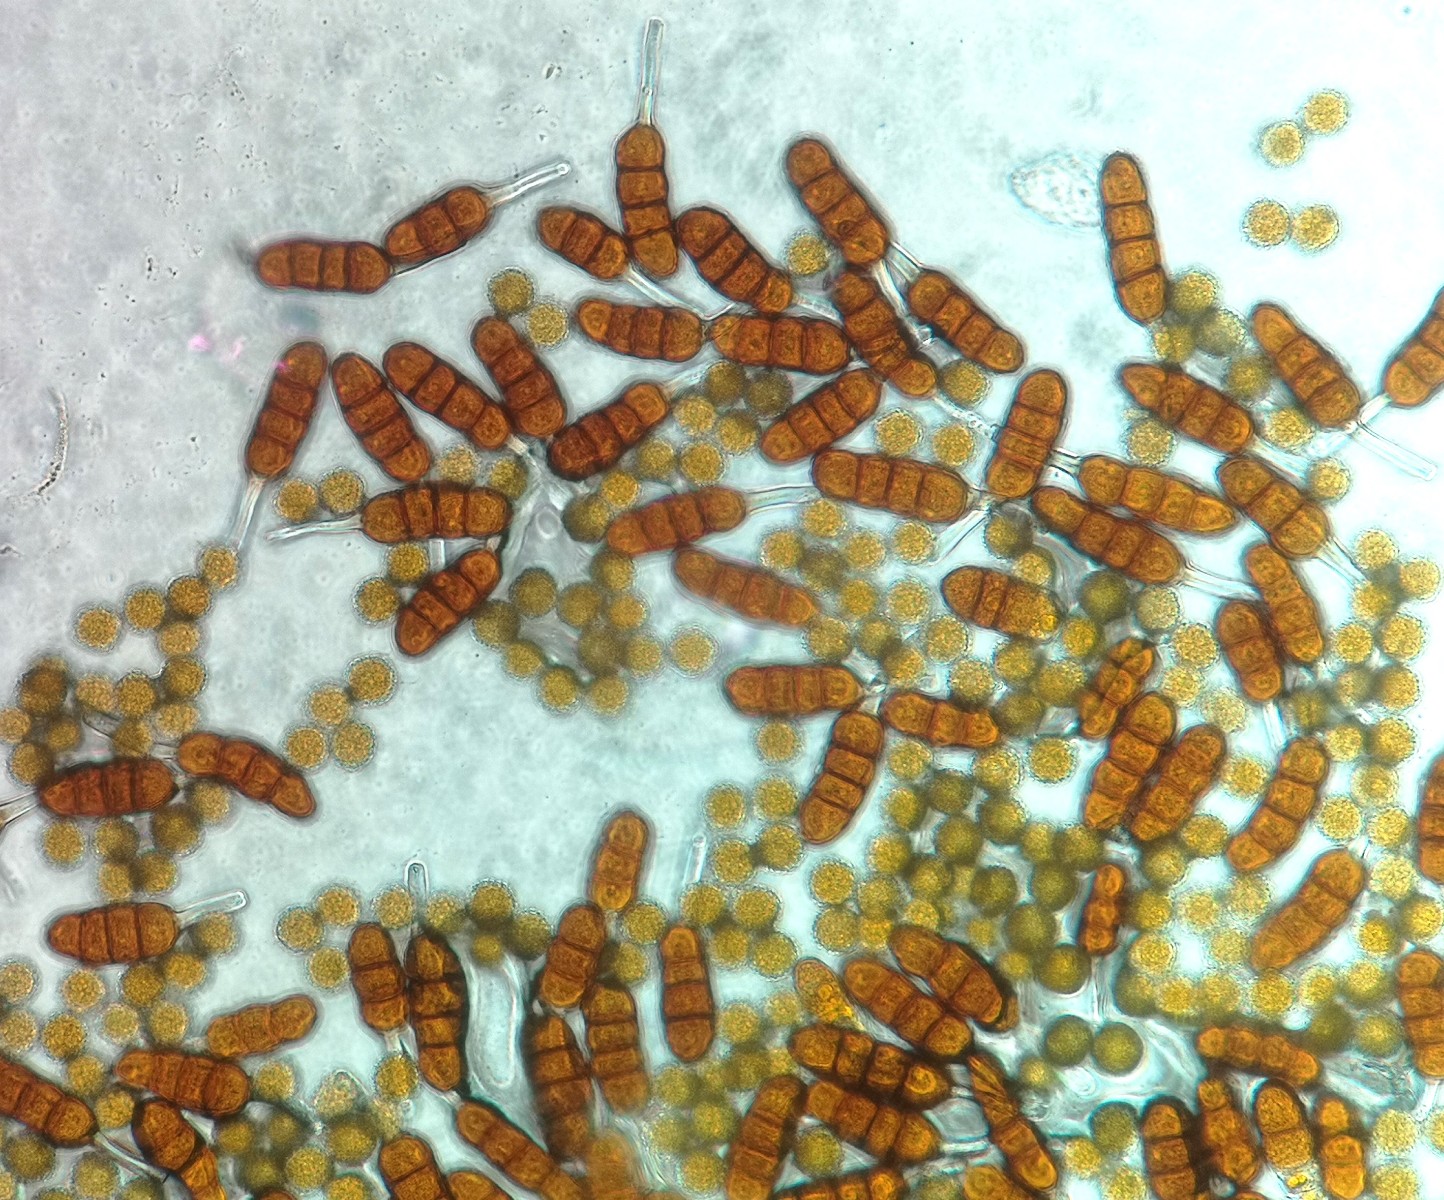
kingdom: Fungi
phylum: Basidiomycota
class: Pucciniomycetes
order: Pucciniales
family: Phragmidiaceae
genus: Phragmidium
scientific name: Phragmidium fragariae
